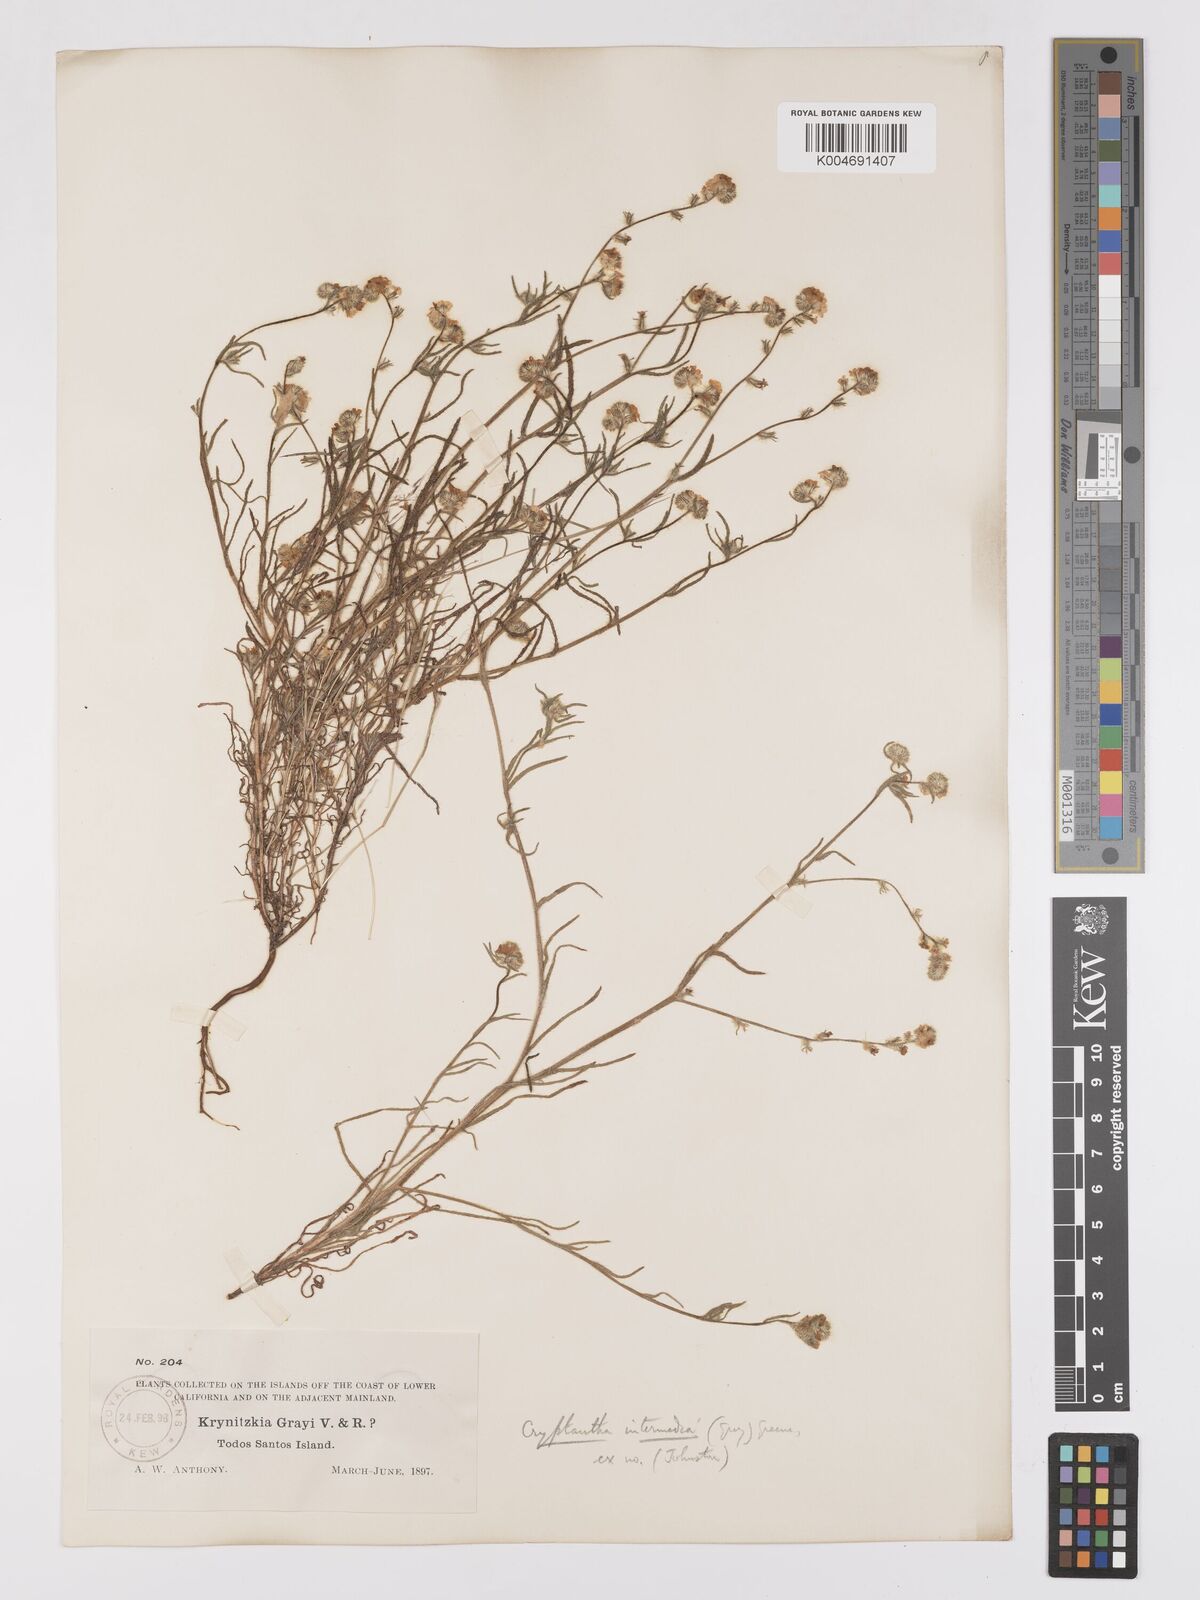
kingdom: Plantae
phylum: Tracheophyta
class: Magnoliopsida
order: Boraginales
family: Boraginaceae
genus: Cryptantha
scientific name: Cryptantha intermedia
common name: Clearwater cryptantha
